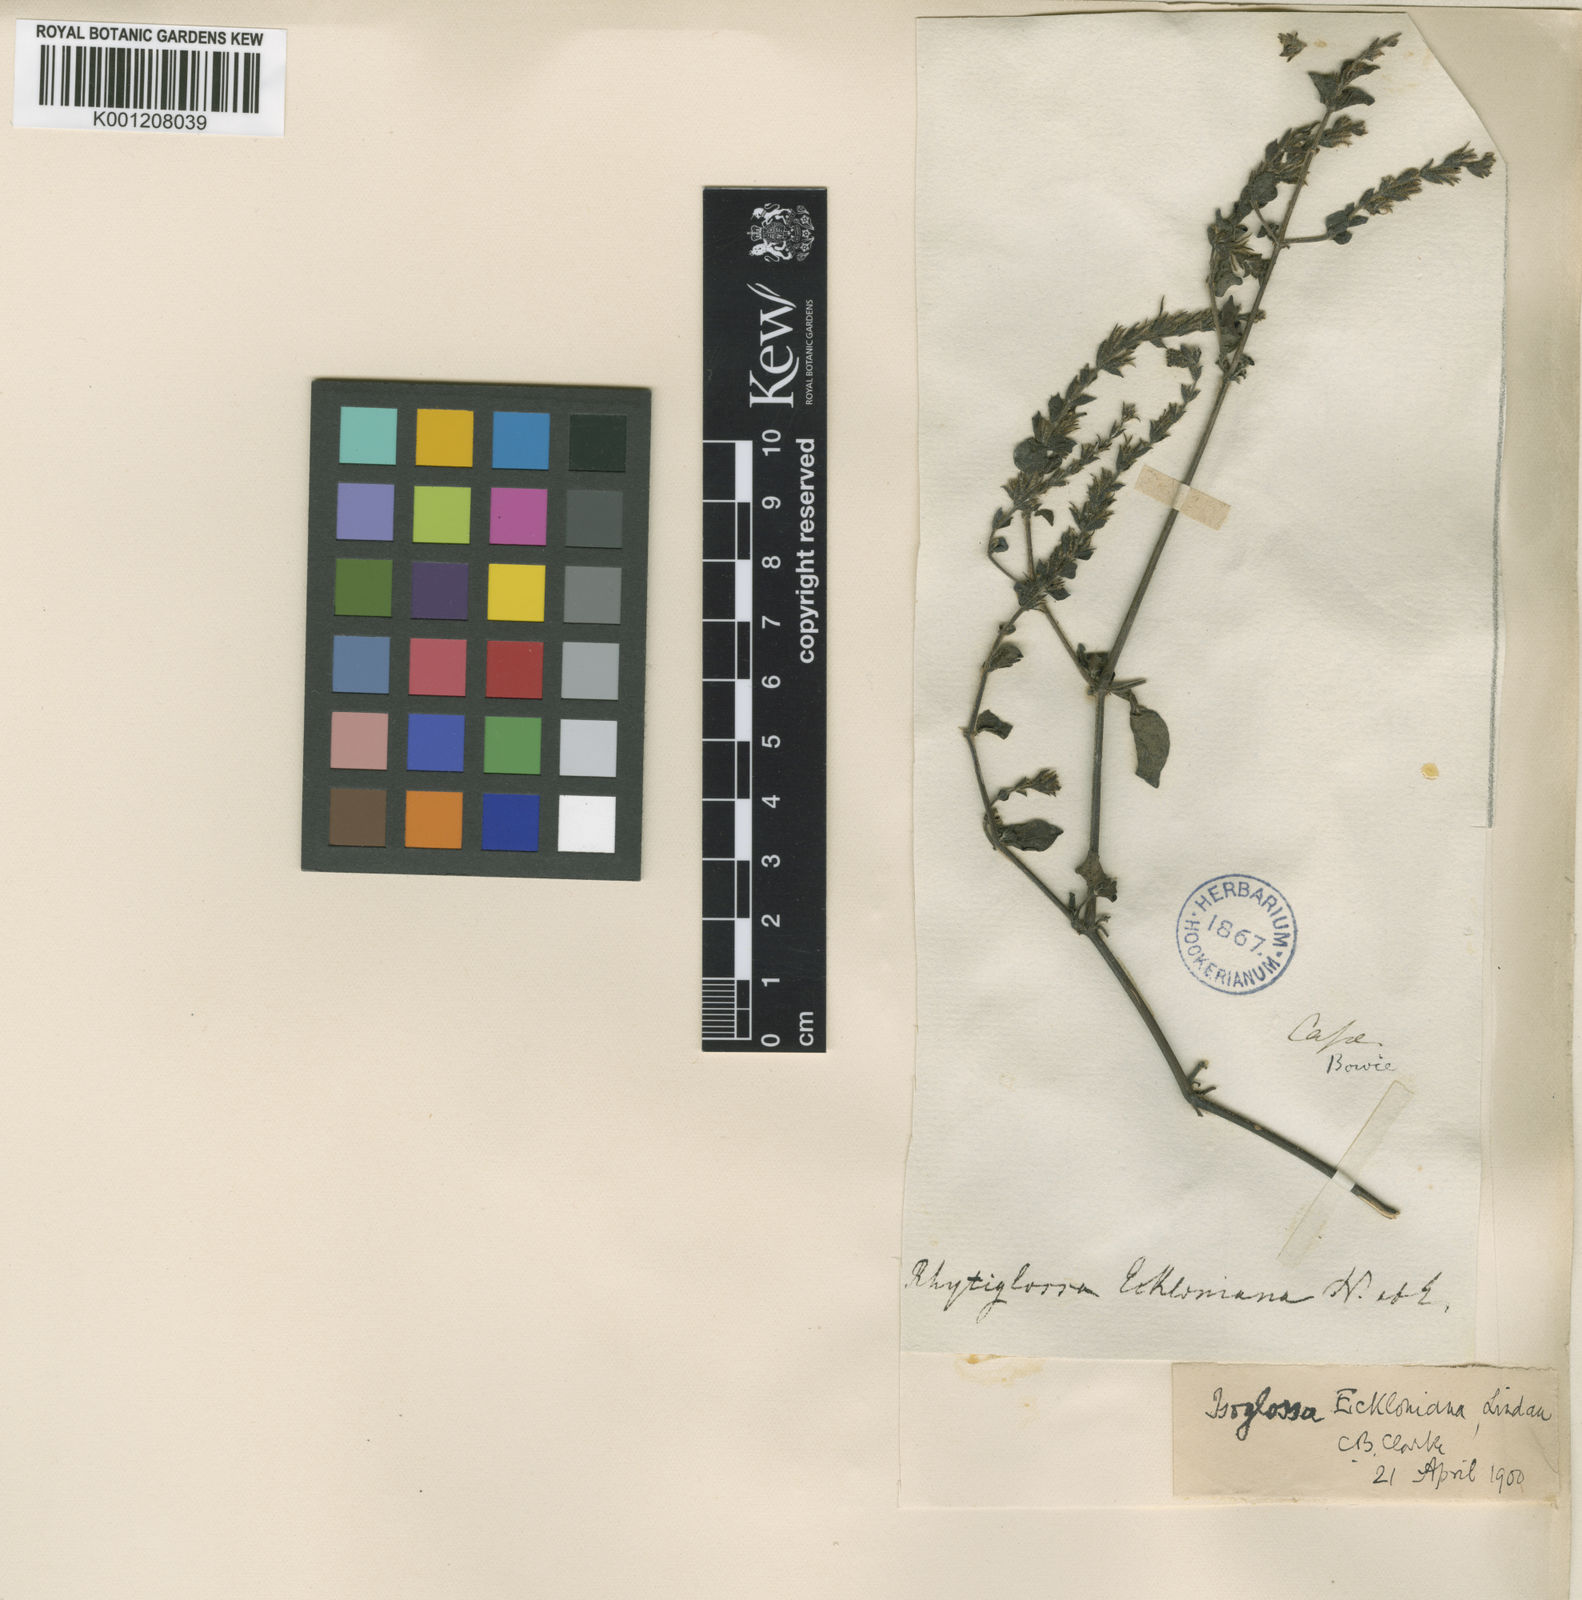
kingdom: Plantae
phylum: Tracheophyta
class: Magnoliopsida
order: Lamiales
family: Acanthaceae
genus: Isoglossa
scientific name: Isoglossa glandulosissima
